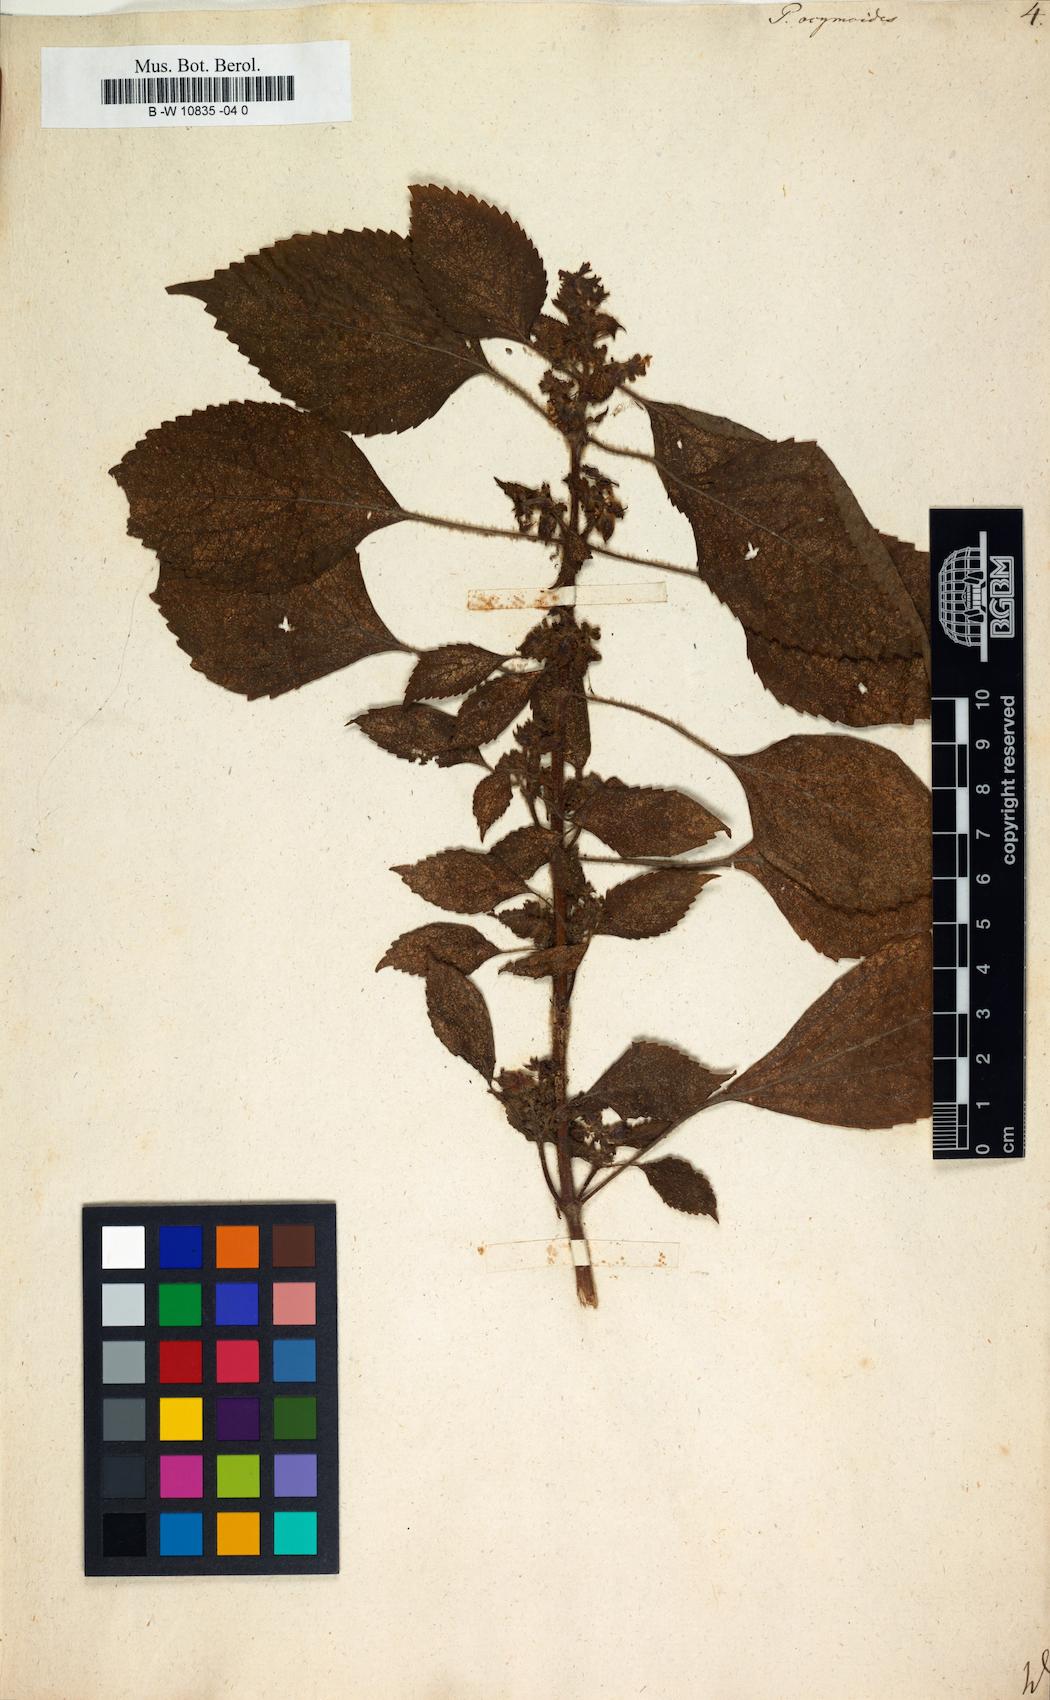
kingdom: Plantae
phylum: Tracheophyta
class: Magnoliopsida
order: Lamiales
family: Lamiaceae
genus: Perilla
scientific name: Perilla frutescens
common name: Perilla
